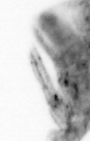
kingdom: Animalia
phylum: Arthropoda
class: Copepoda
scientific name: Copepoda
